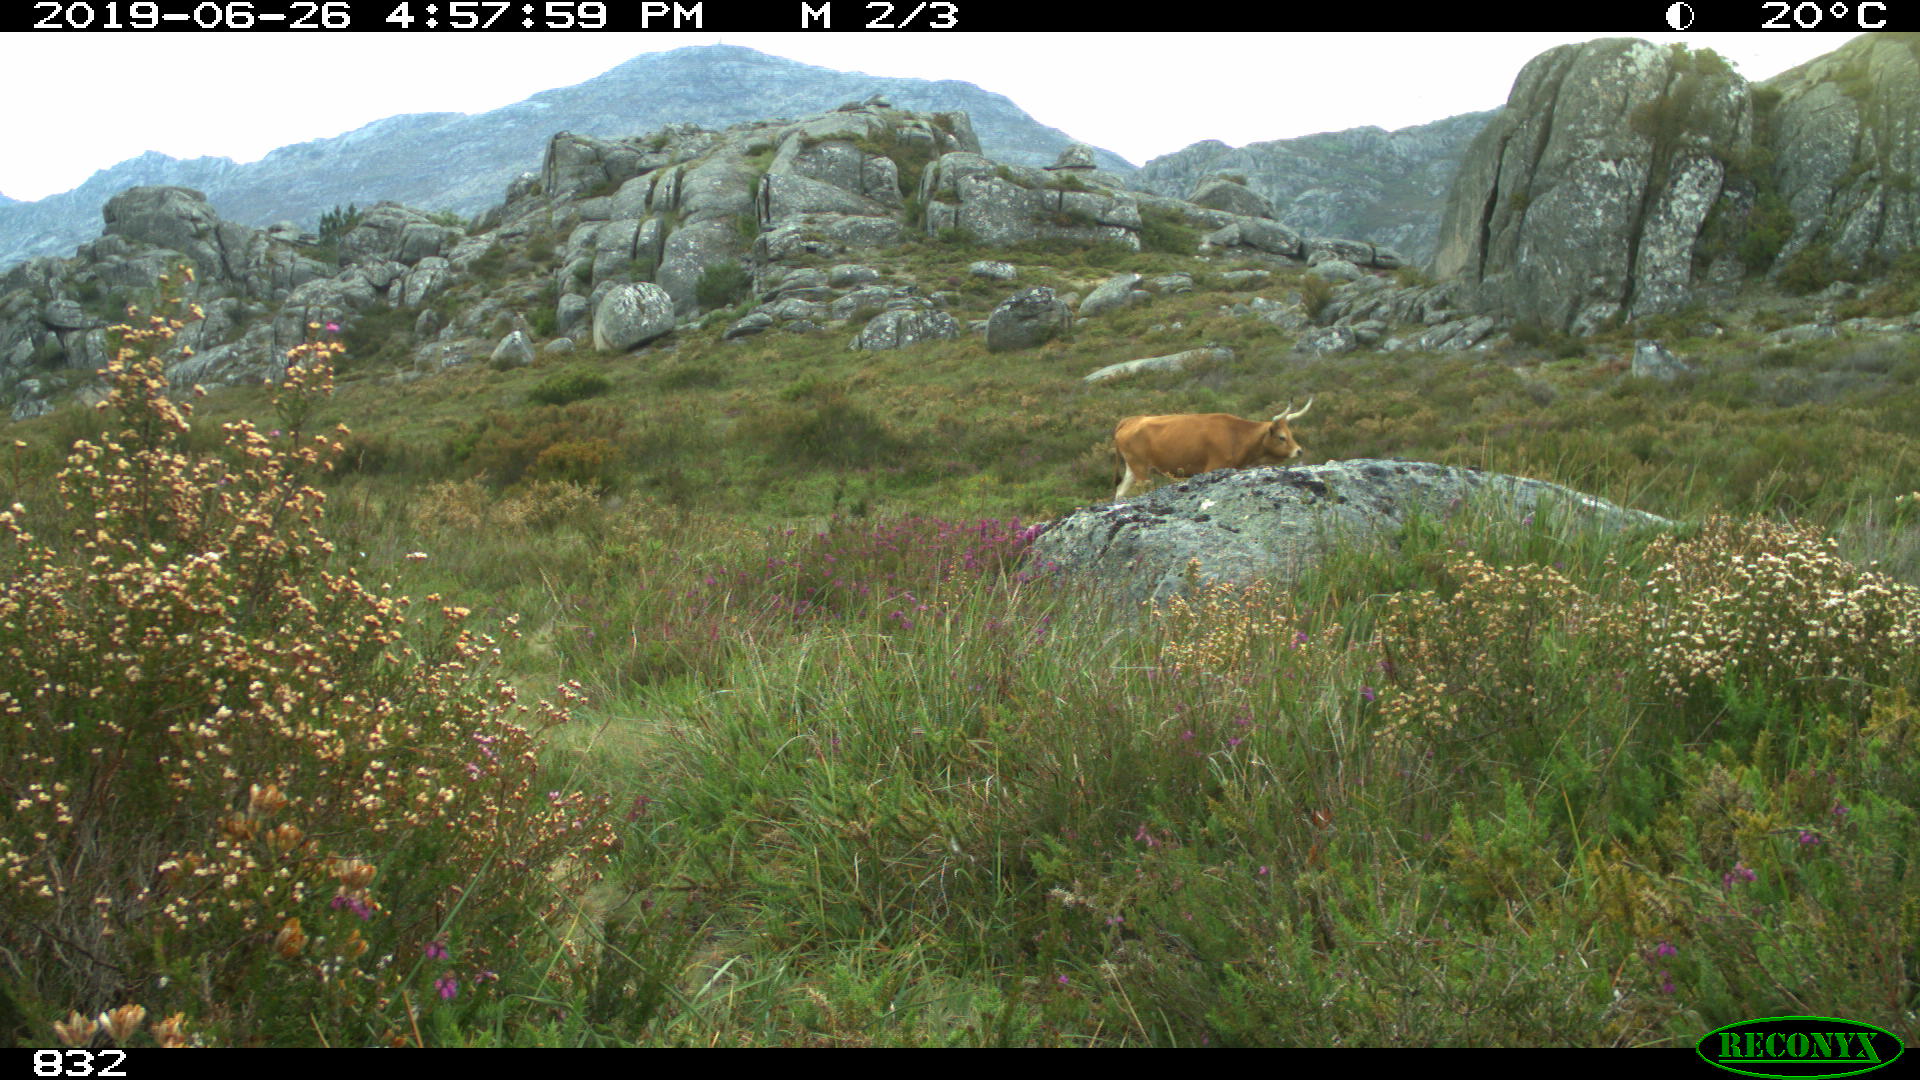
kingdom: Animalia
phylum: Chordata
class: Mammalia
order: Artiodactyla
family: Bovidae
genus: Bos
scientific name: Bos taurus
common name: Domesticated cattle
